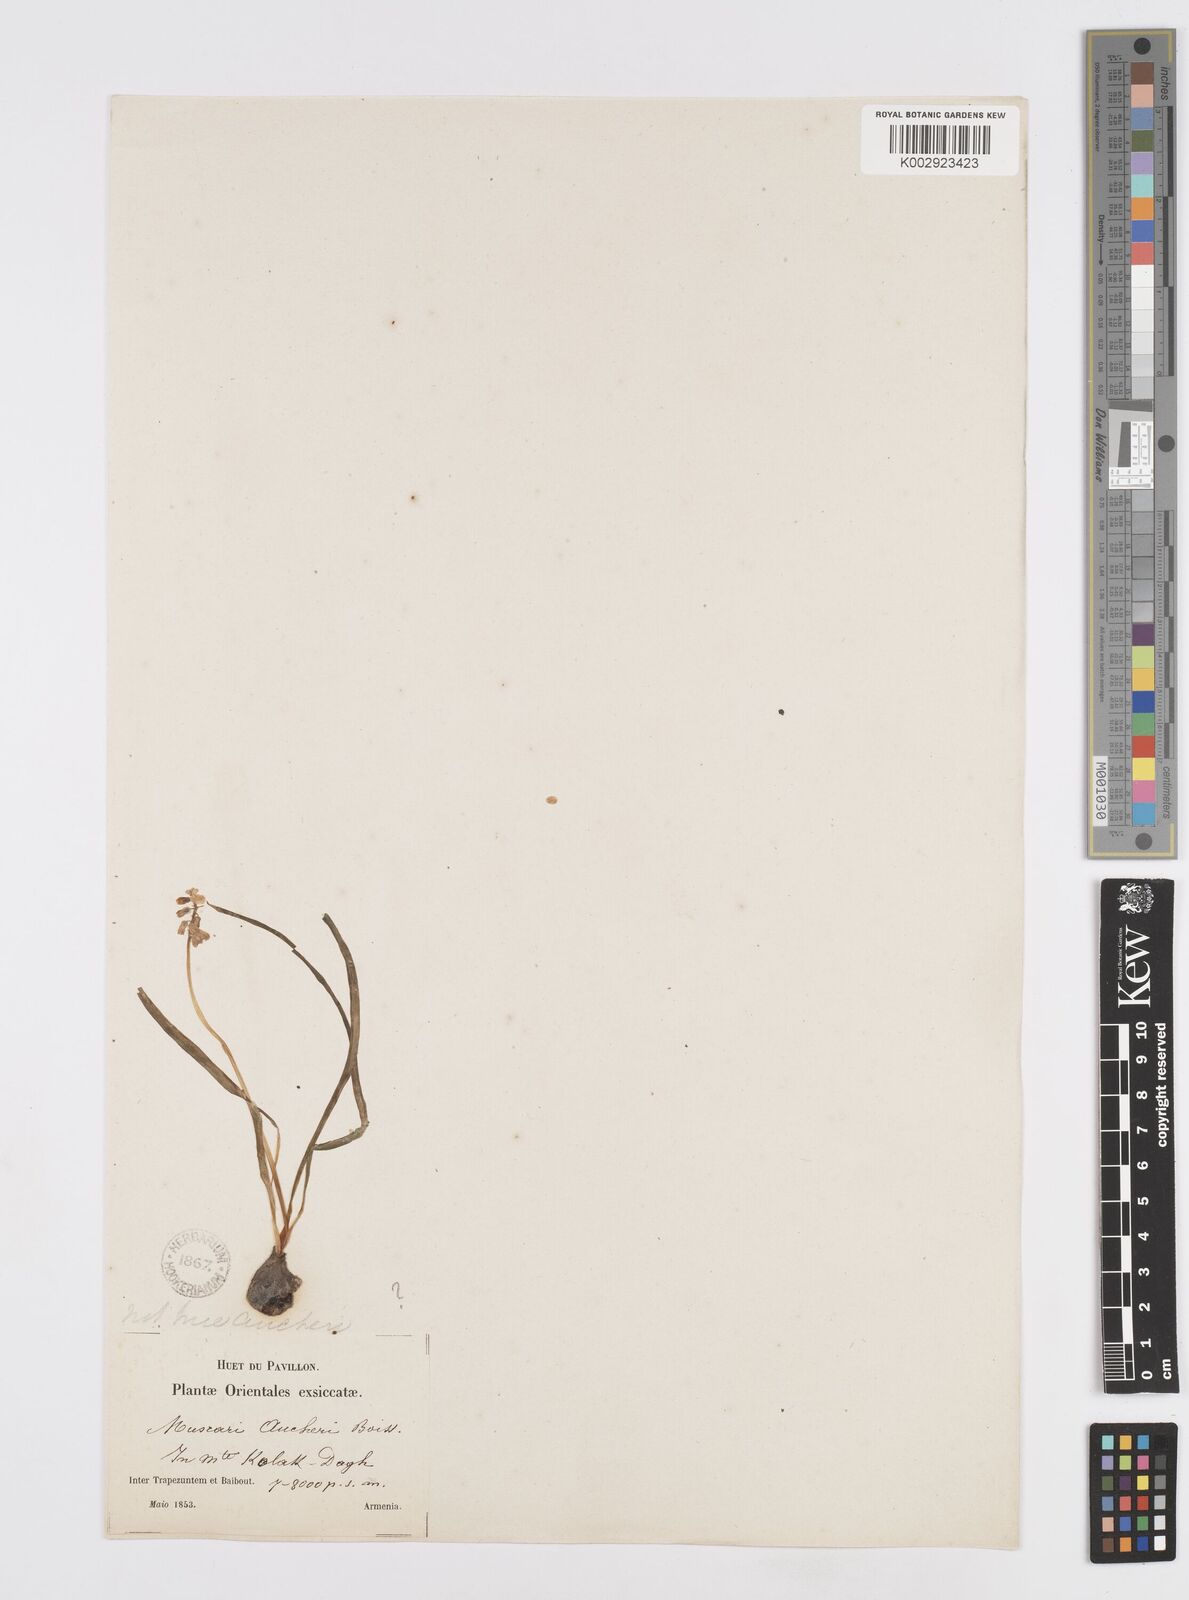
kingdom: Plantae
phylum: Tracheophyta
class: Liliopsida
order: Asparagales
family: Asparagaceae
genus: Muscari
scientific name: Muscari neglectum
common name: Grape-hyacinth
